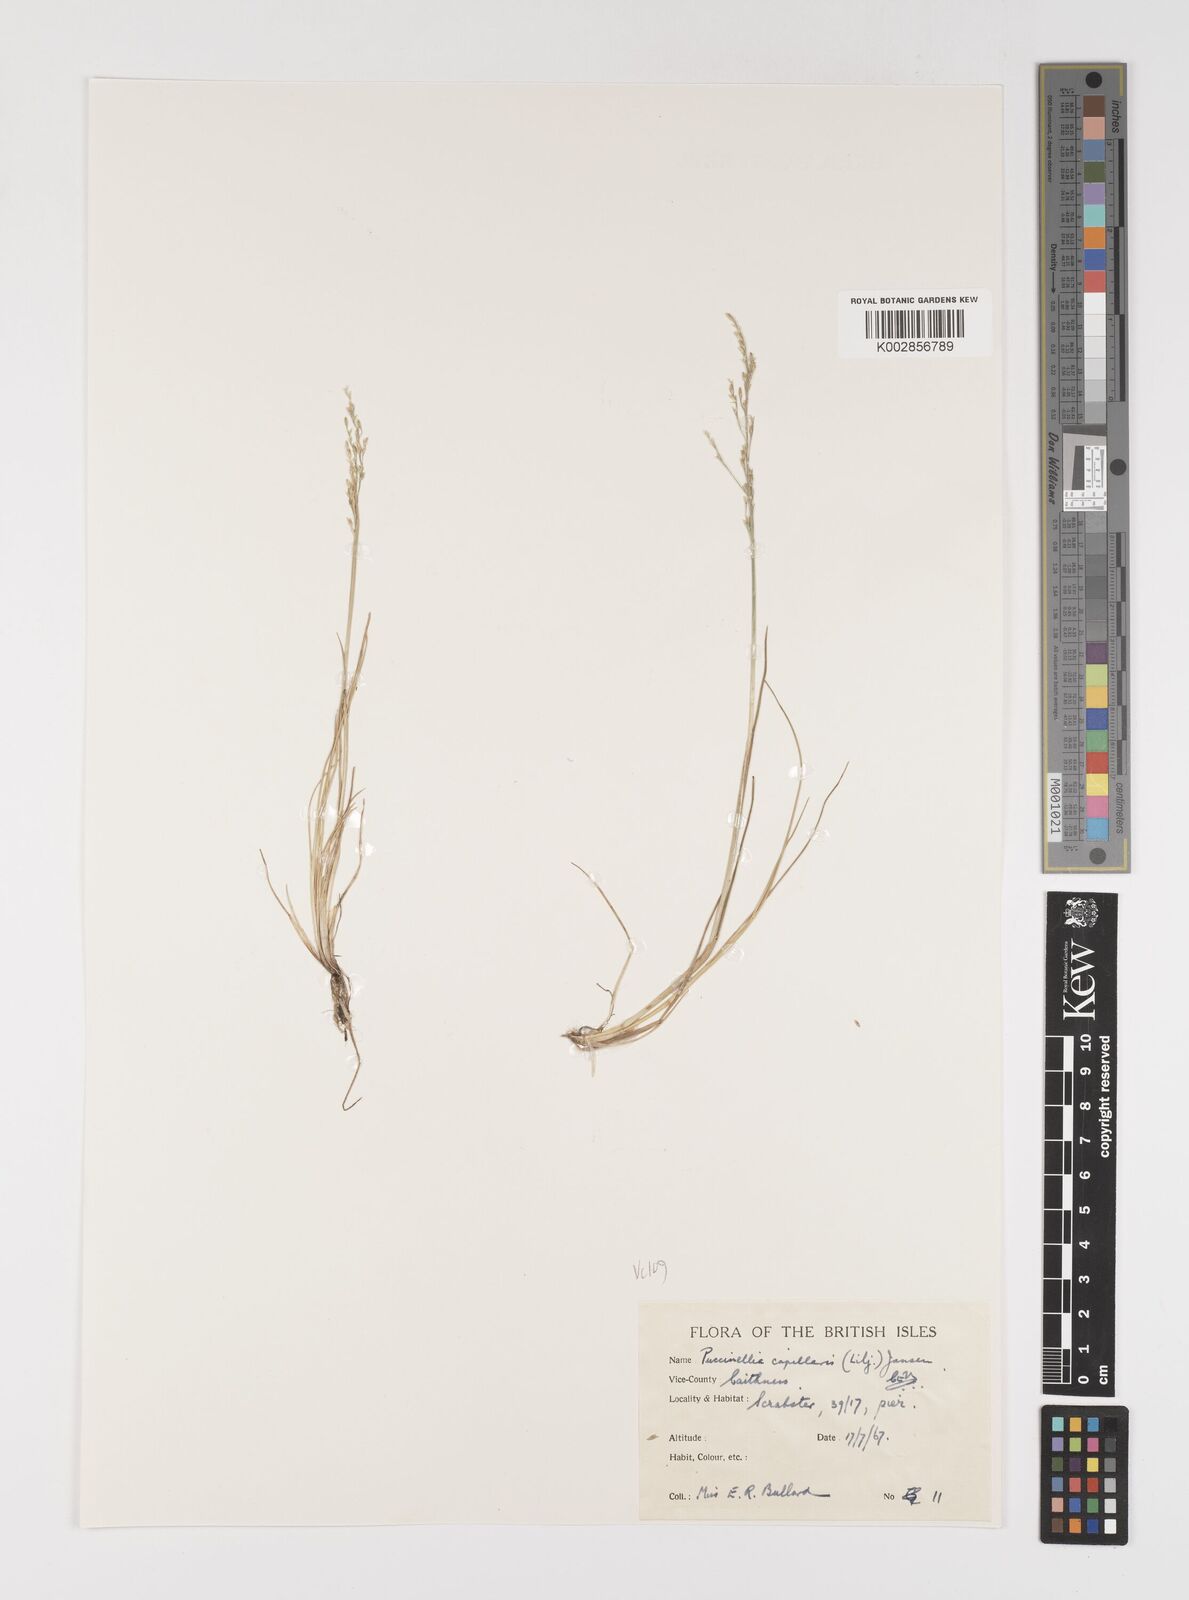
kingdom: Plantae
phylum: Tracheophyta
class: Liliopsida
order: Poales
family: Poaceae
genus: Puccinellia
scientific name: Puccinellia distans
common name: Weeping alkaligrass
